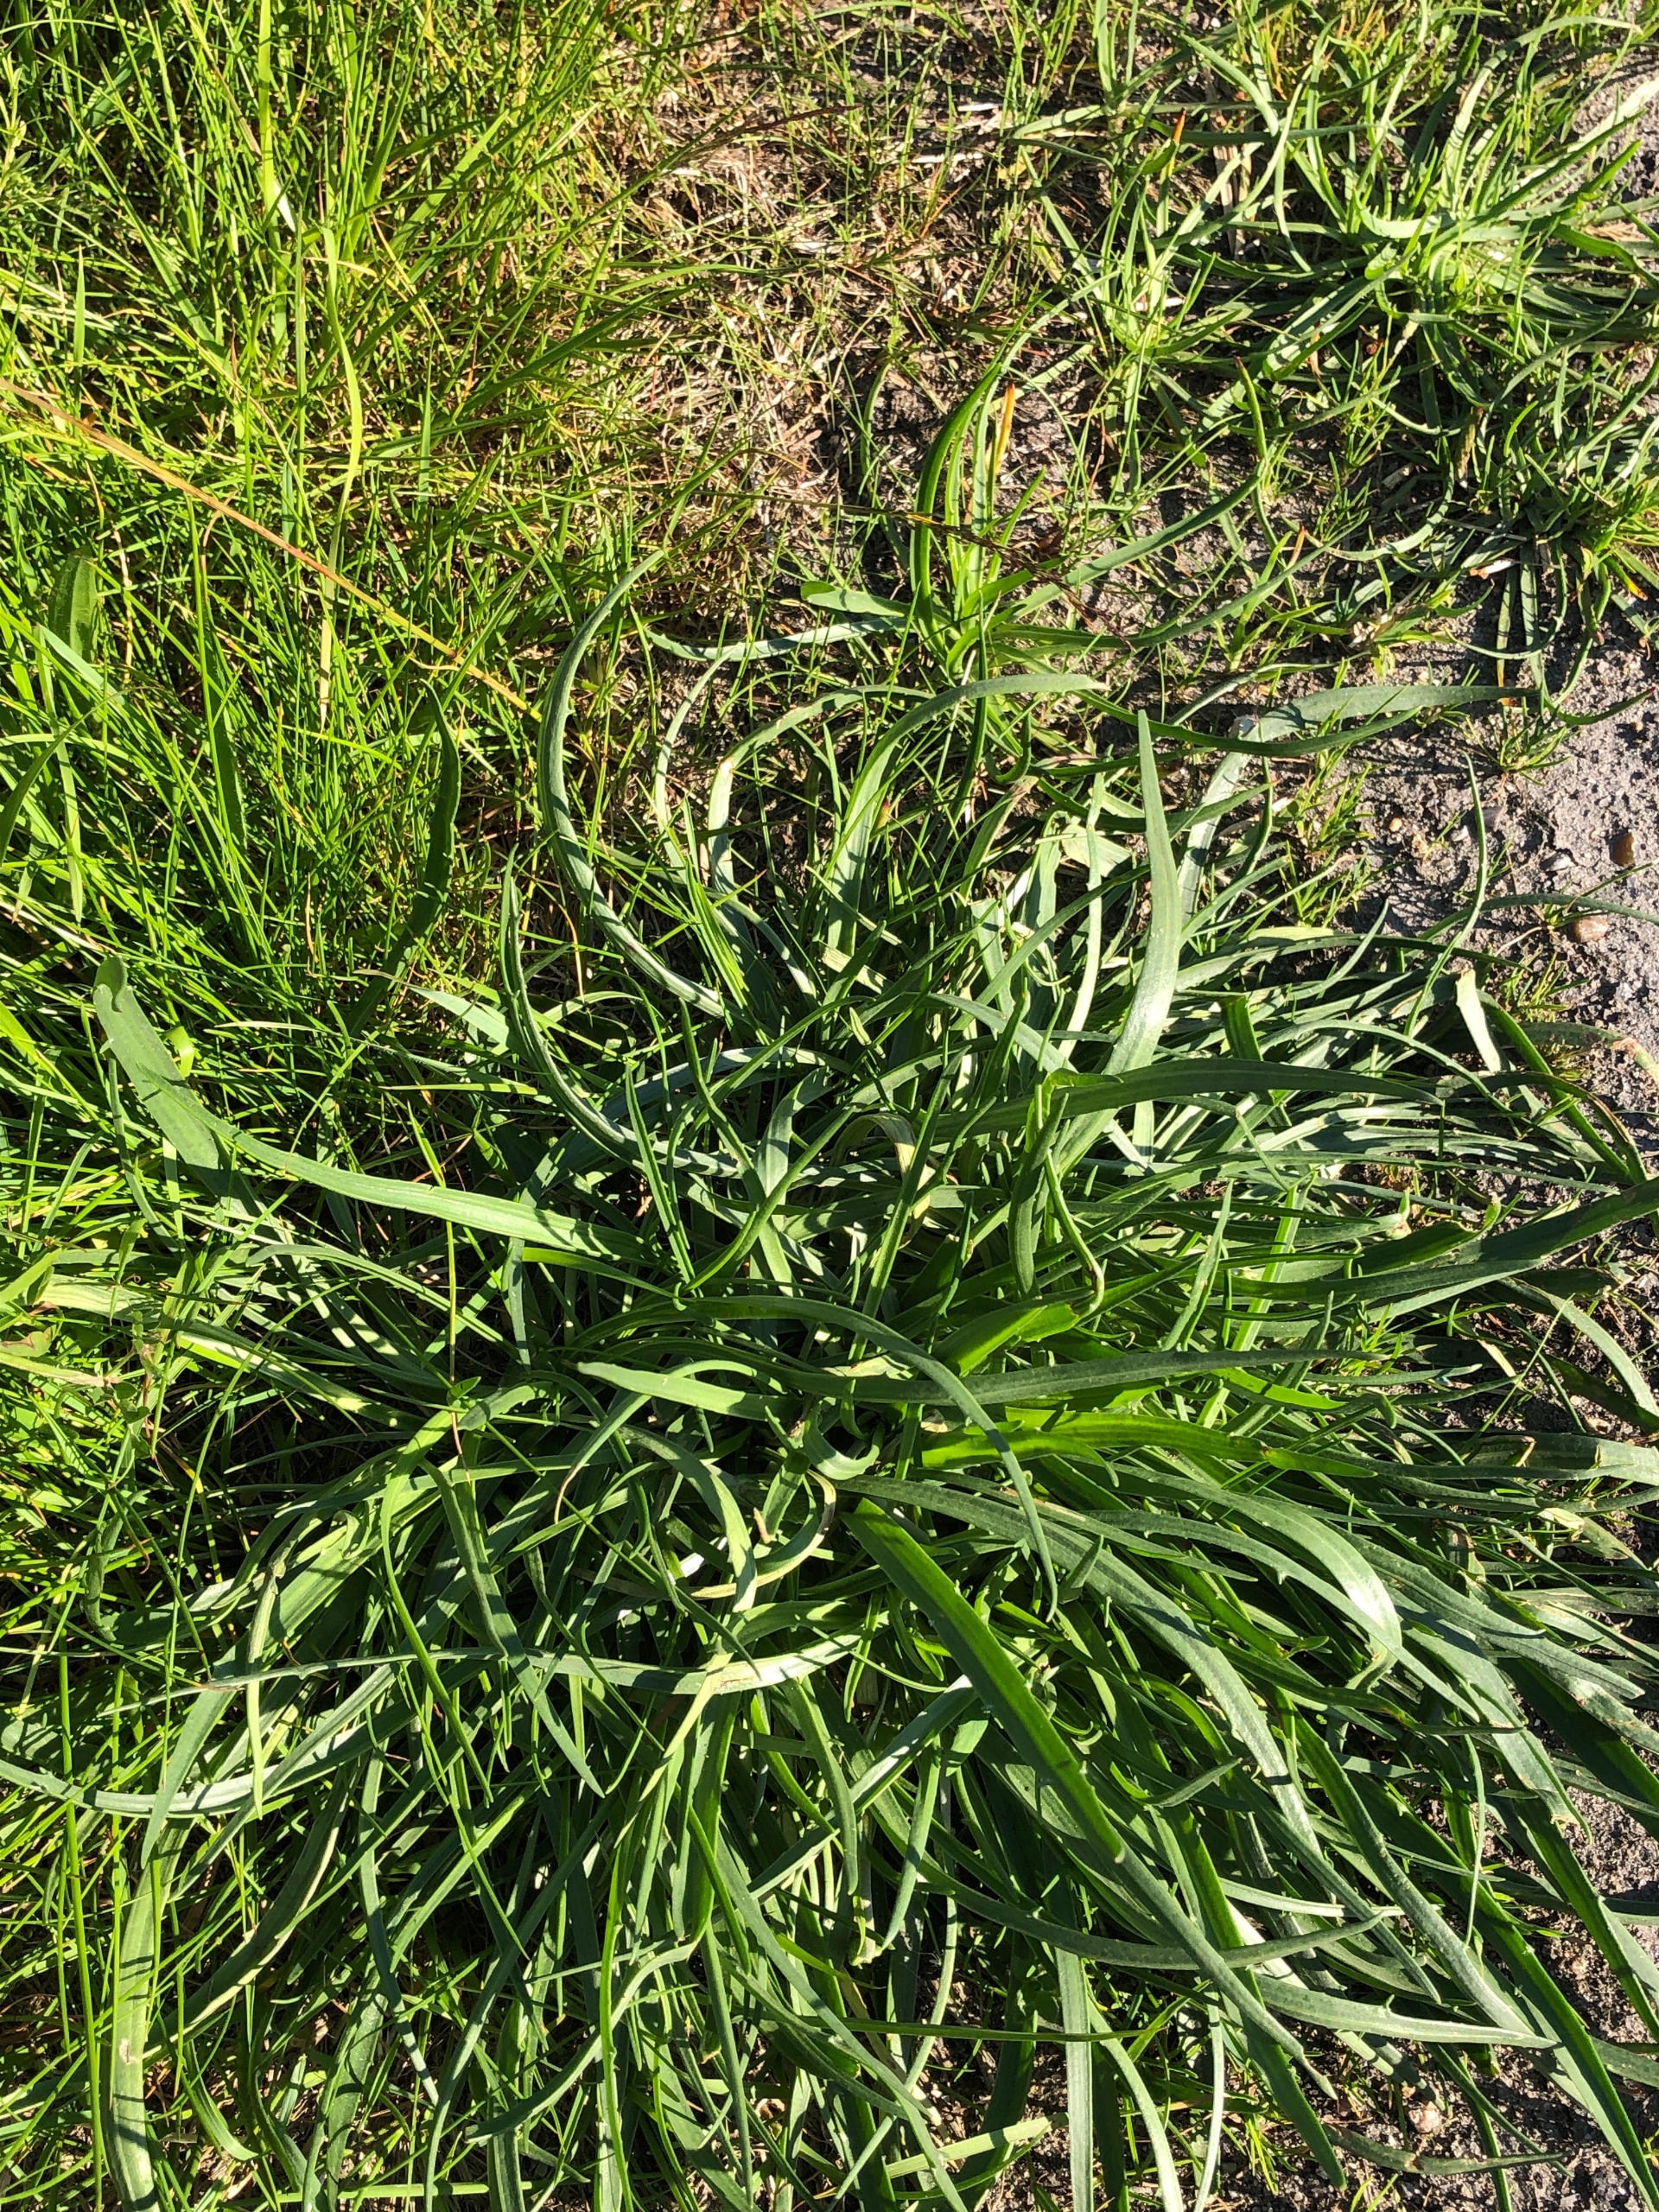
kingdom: Plantae
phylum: Tracheophyta
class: Magnoliopsida
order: Lamiales
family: Plantaginaceae
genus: Plantago
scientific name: Plantago maritima
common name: Strand-vejbred
